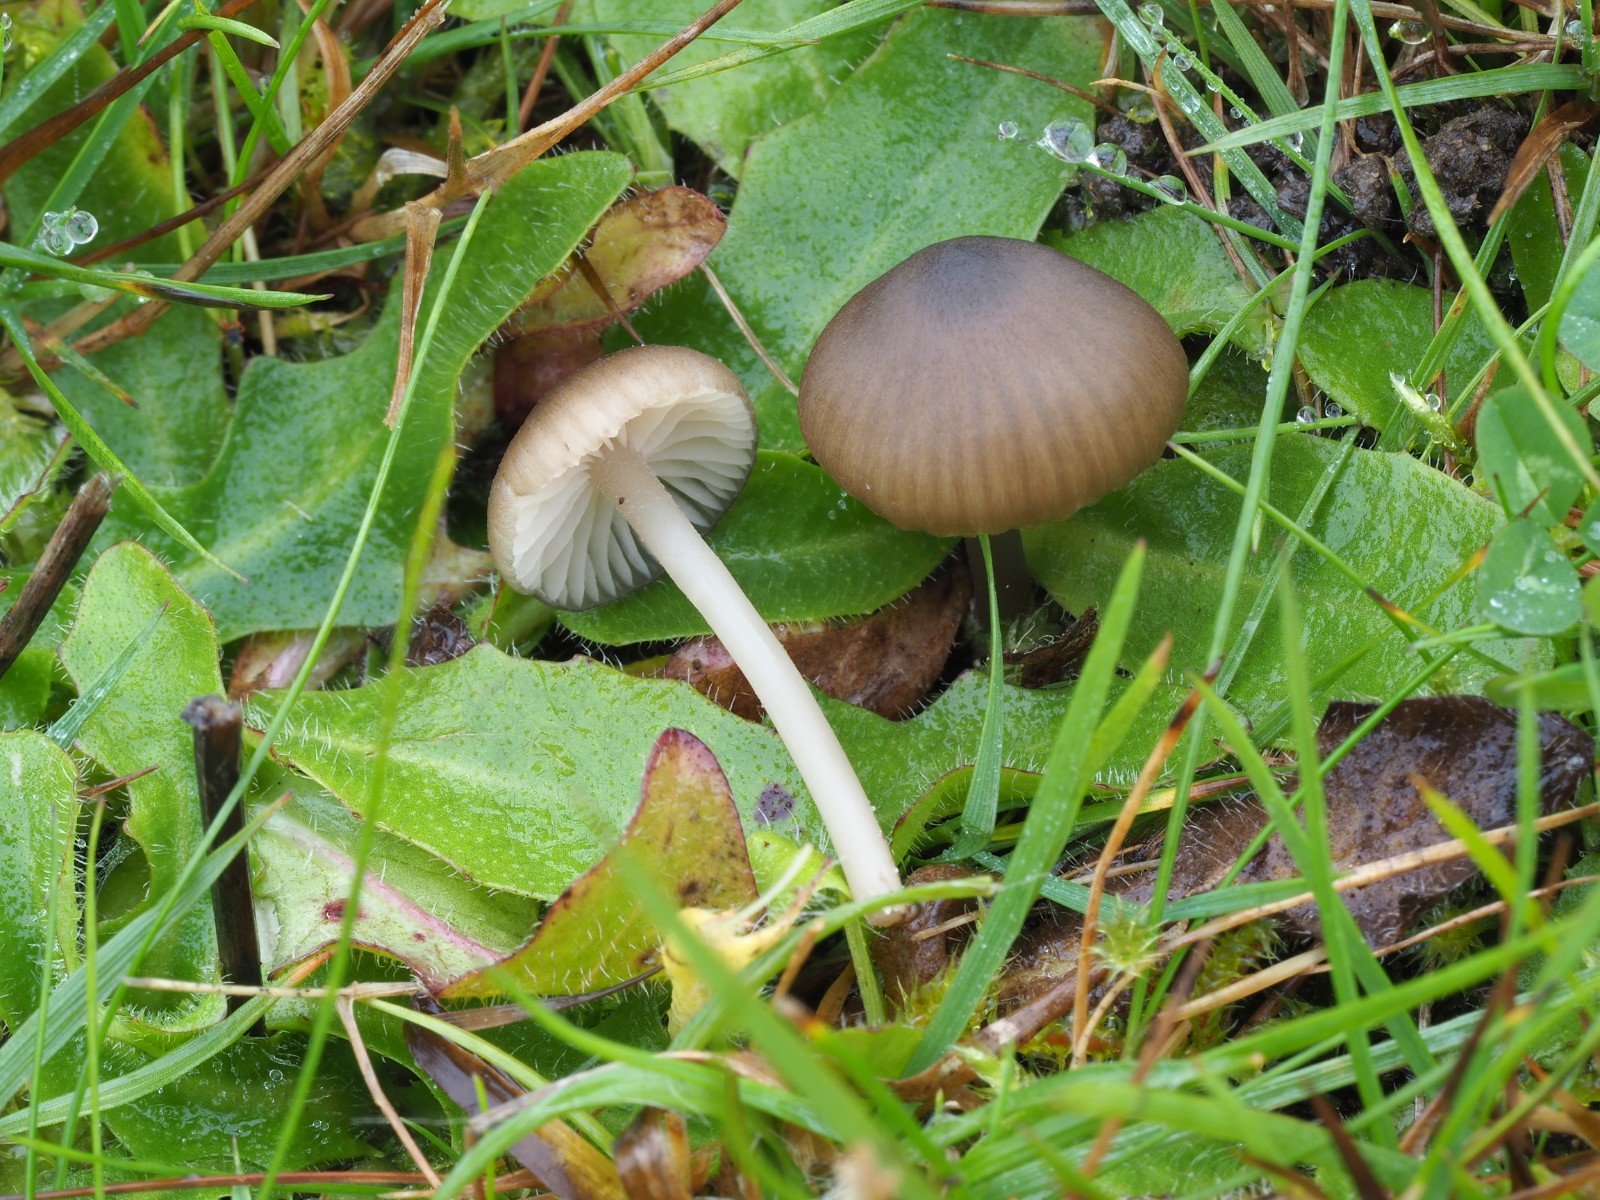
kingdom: Fungi
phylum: Basidiomycota
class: Agaricomycetes
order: Agaricales
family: Entolomataceae
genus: Entoloma
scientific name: Entoloma infula
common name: hvidbladet rødblad
